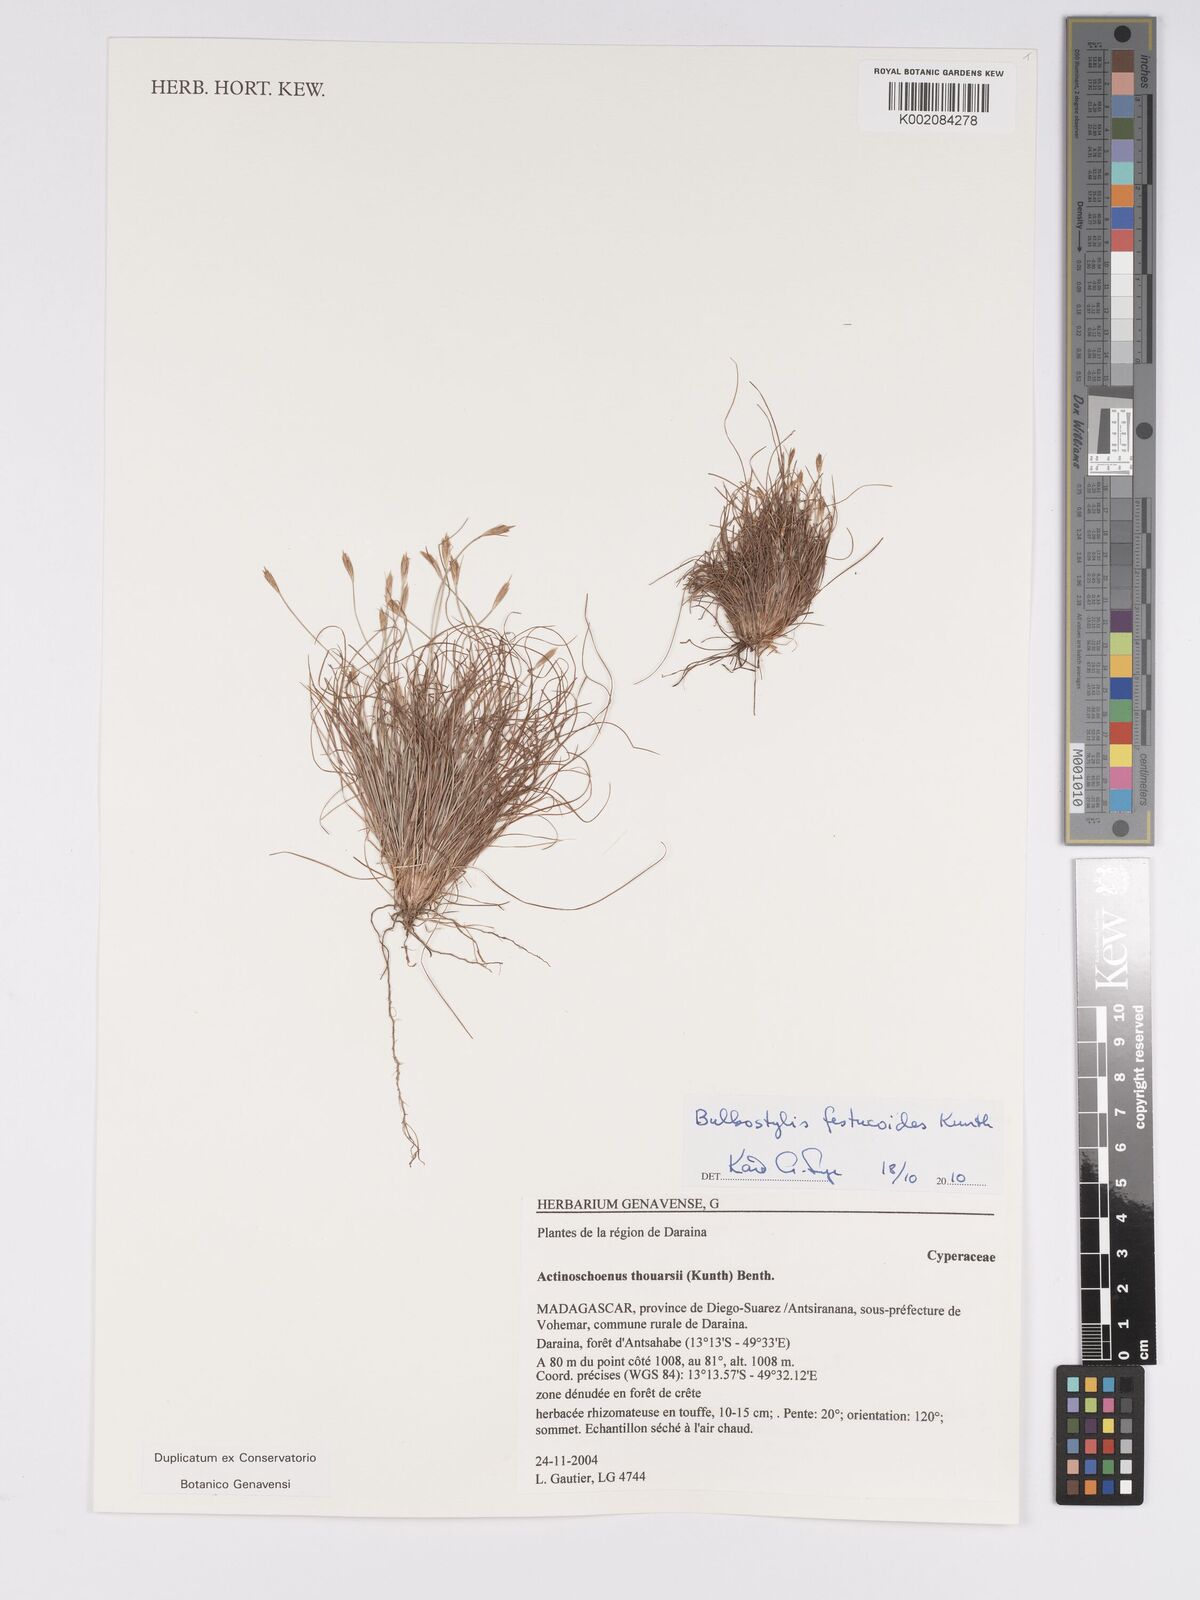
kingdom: Plantae
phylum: Tracheophyta
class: Liliopsida
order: Poales
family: Cyperaceae
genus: Bulbostylis
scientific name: Bulbostylis festucoides
